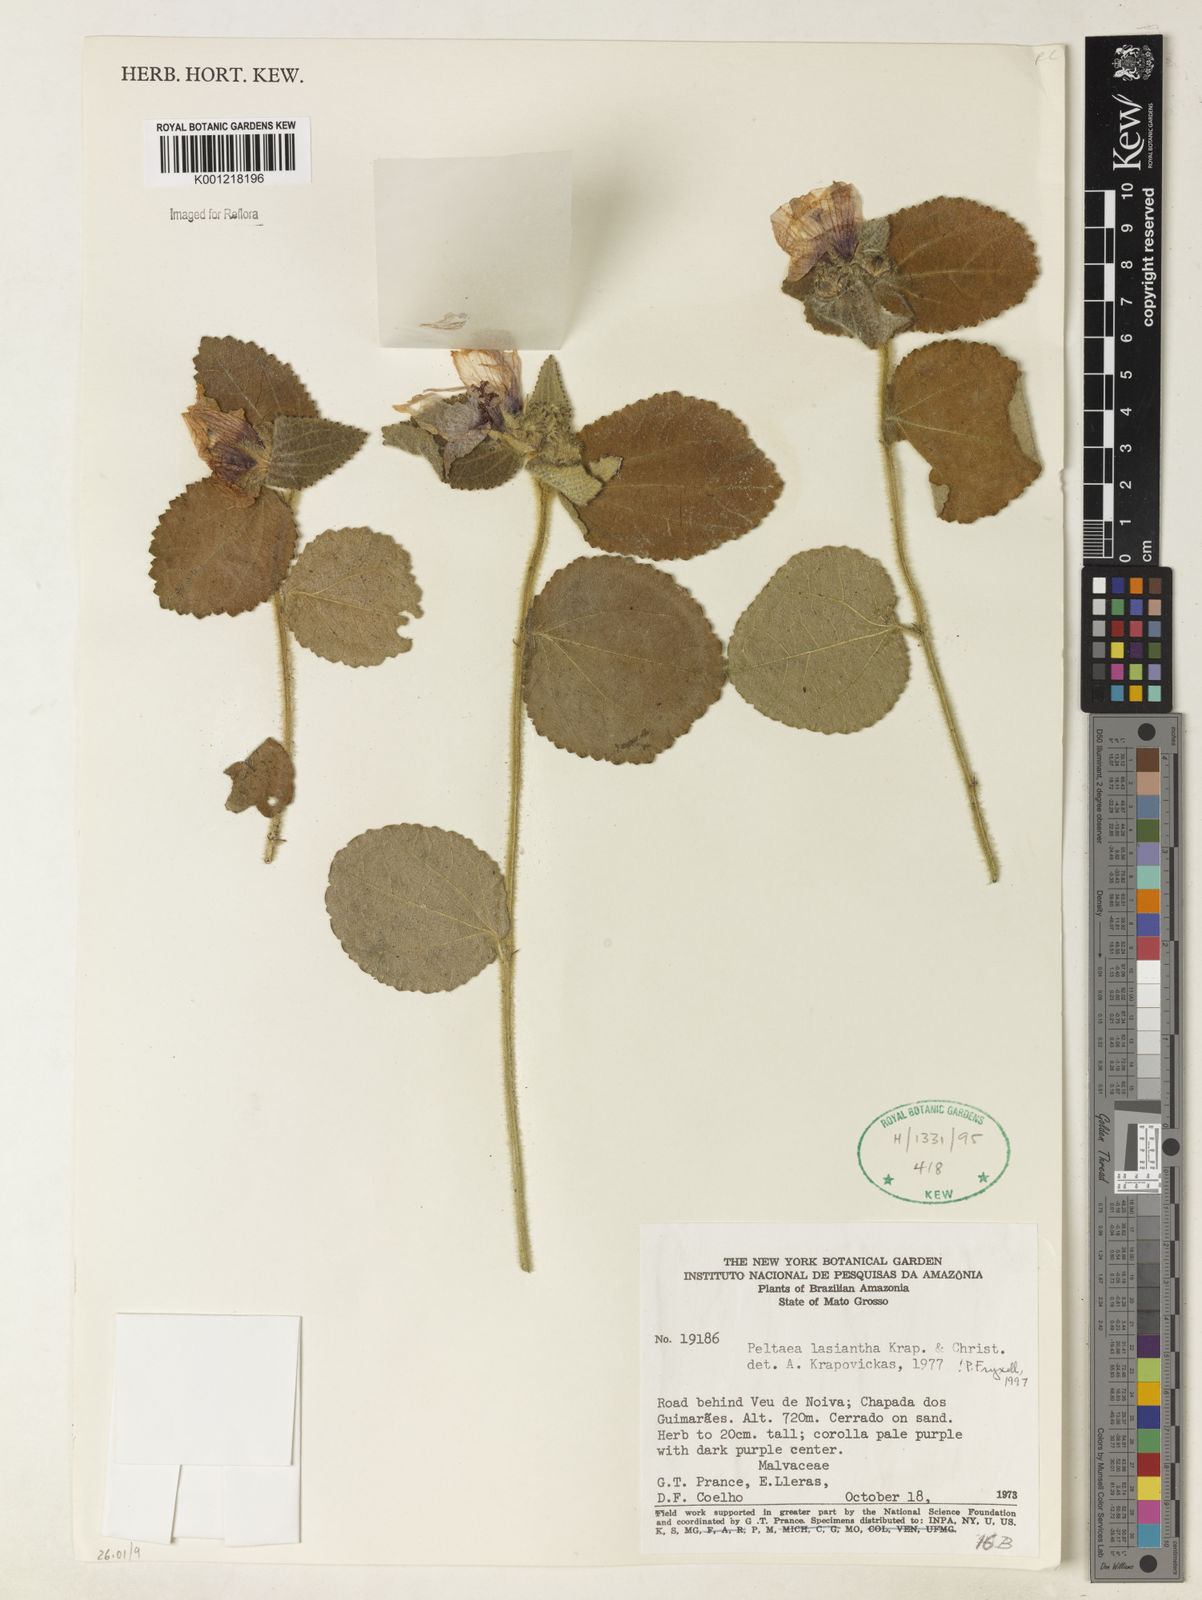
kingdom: Plantae
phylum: Tracheophyta
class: Magnoliopsida
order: Malvales
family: Malvaceae
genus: Peltaea
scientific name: Peltaea
